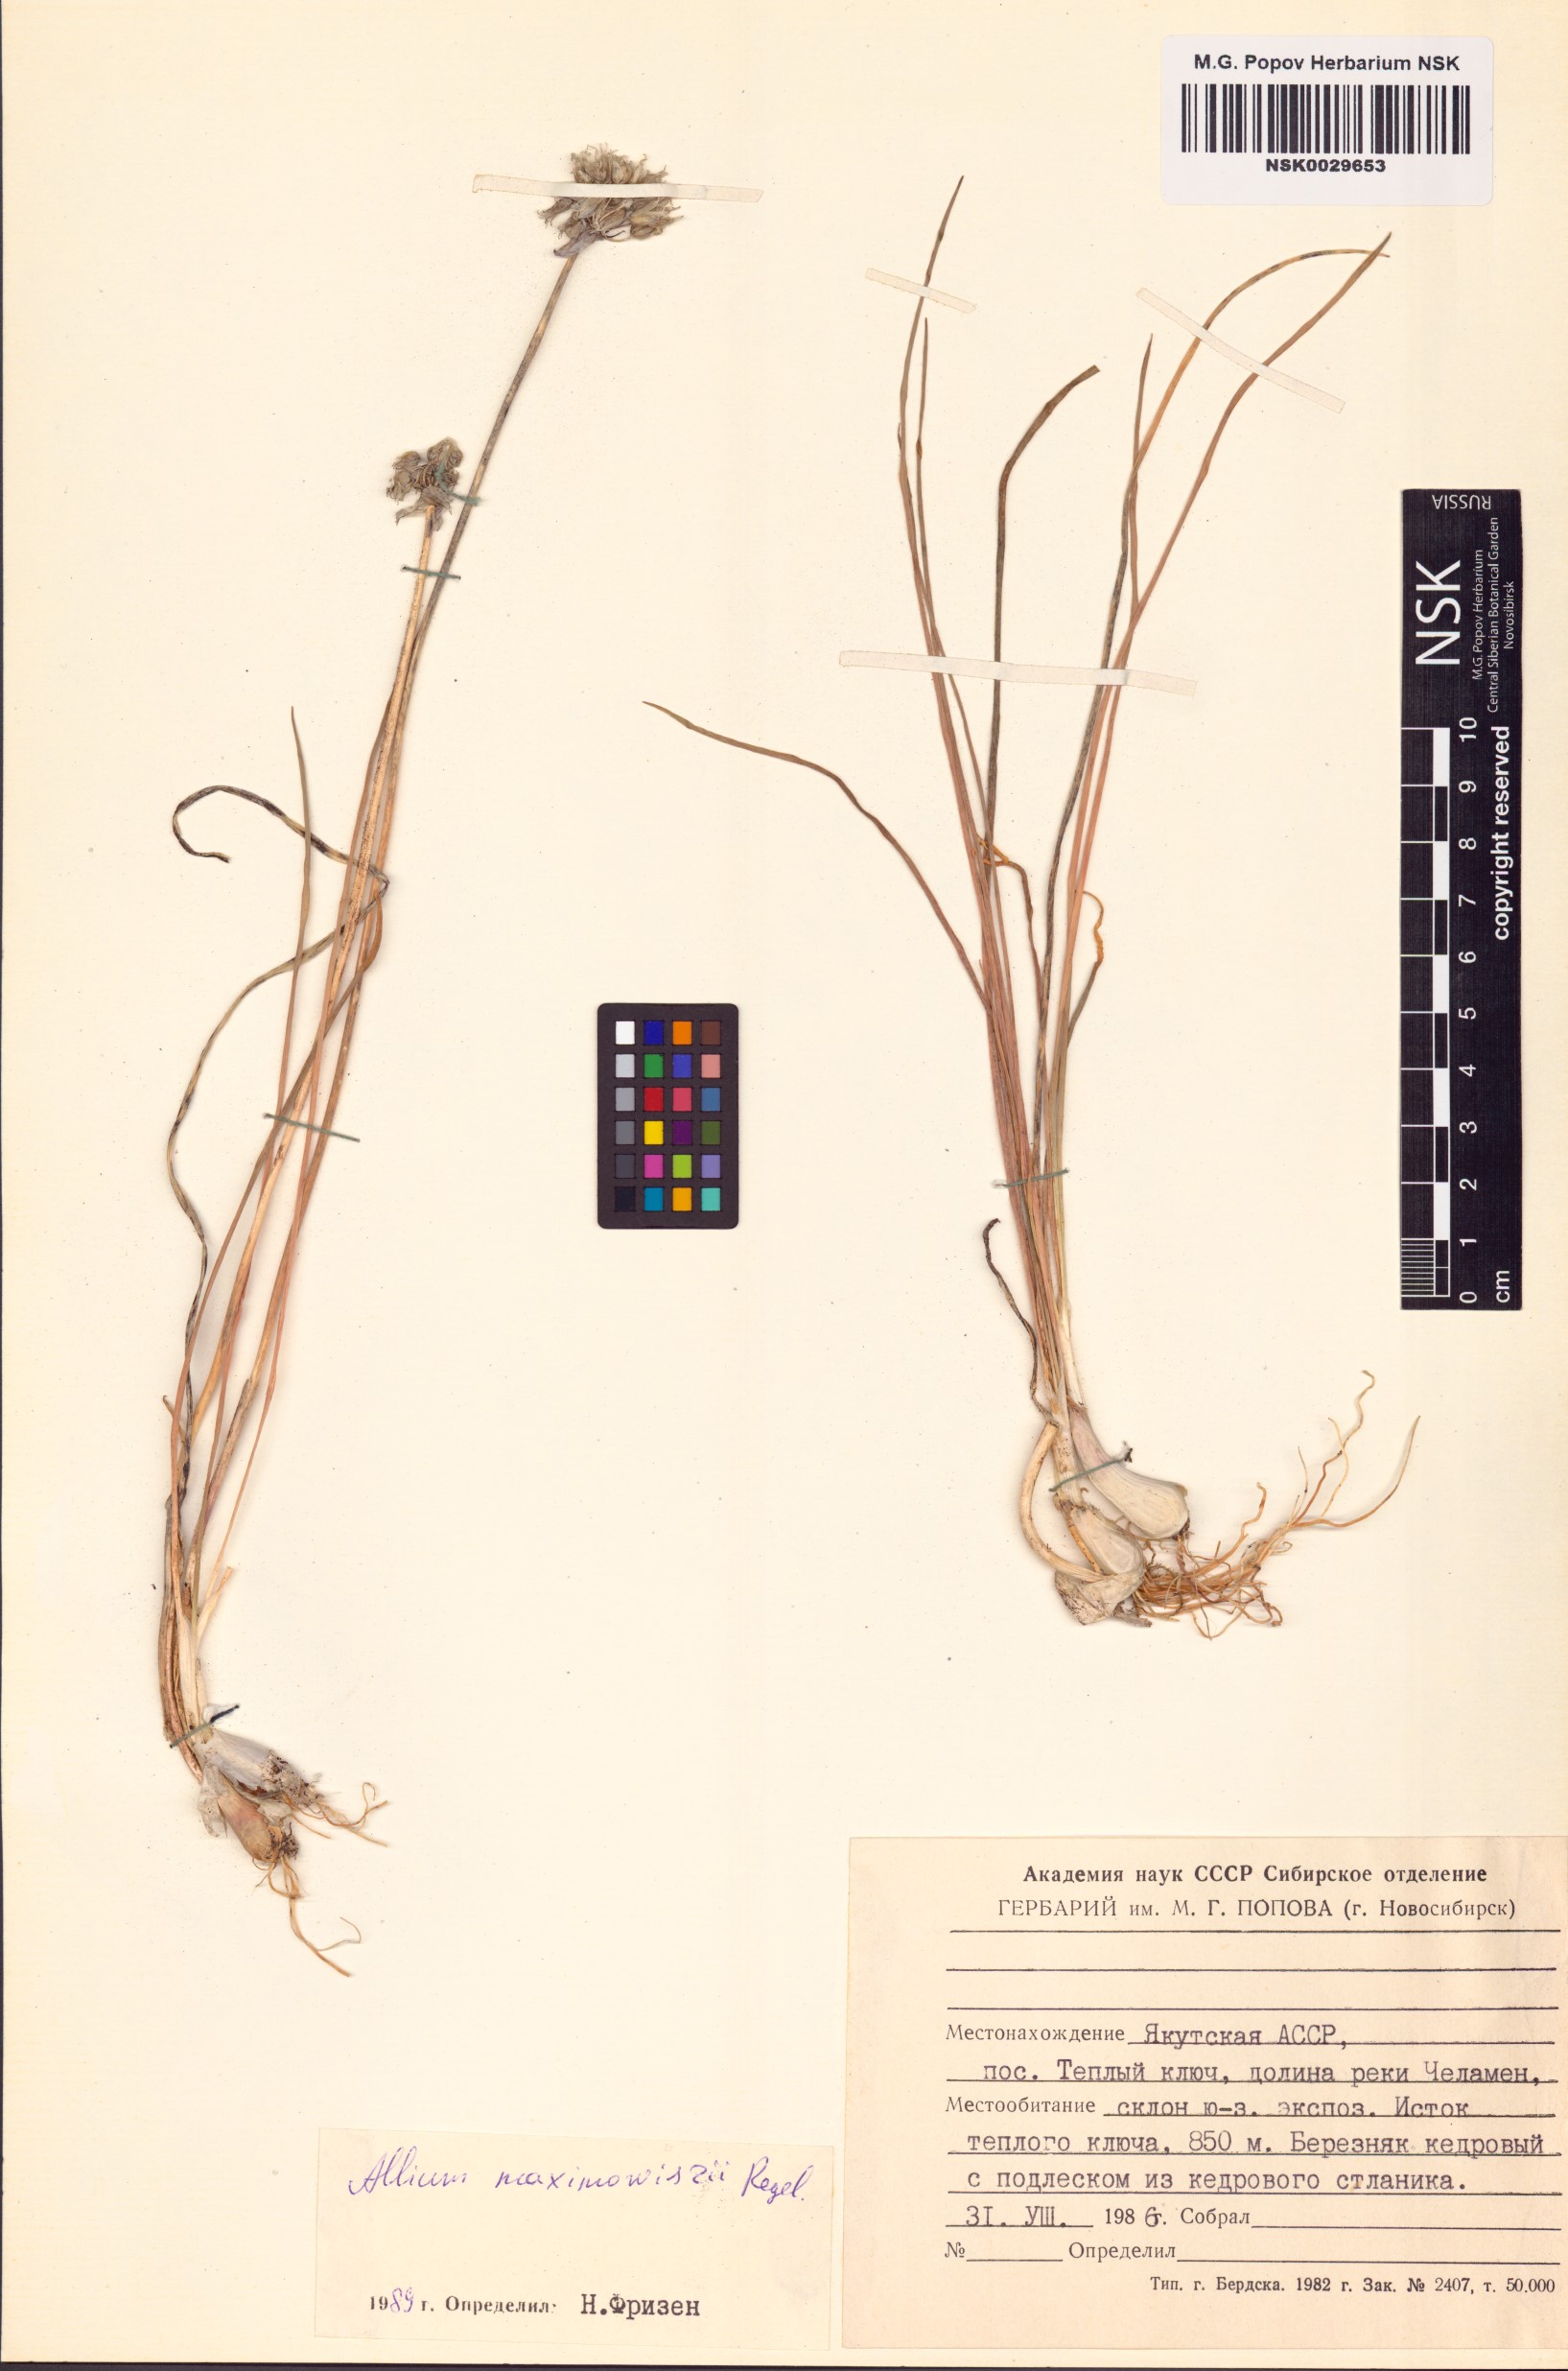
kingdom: Plantae
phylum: Tracheophyta
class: Liliopsida
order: Asparagales
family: Amaryllidaceae
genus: Allium
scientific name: Allium maximowiczii
